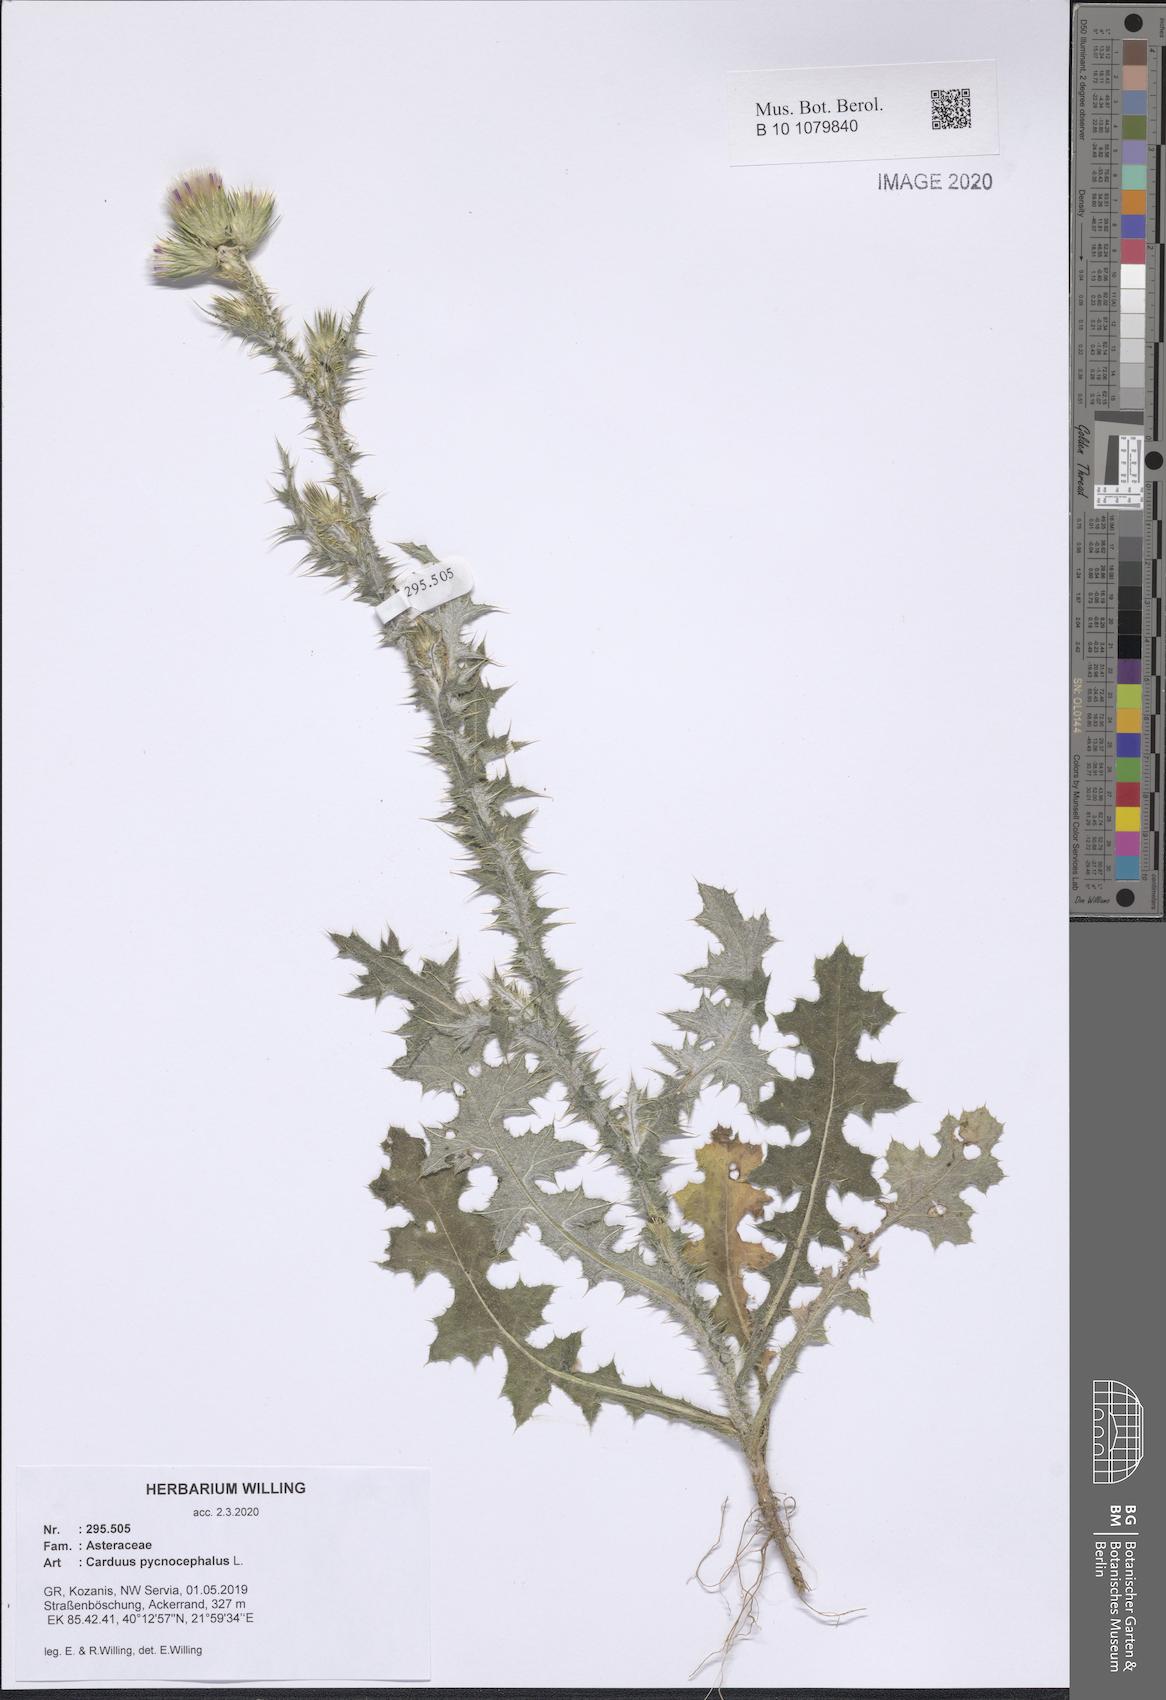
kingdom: Plantae
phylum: Tracheophyta
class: Magnoliopsida
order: Asterales
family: Asteraceae
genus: Carduus
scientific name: Carduus pycnocephalus
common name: Plymouth thistle
